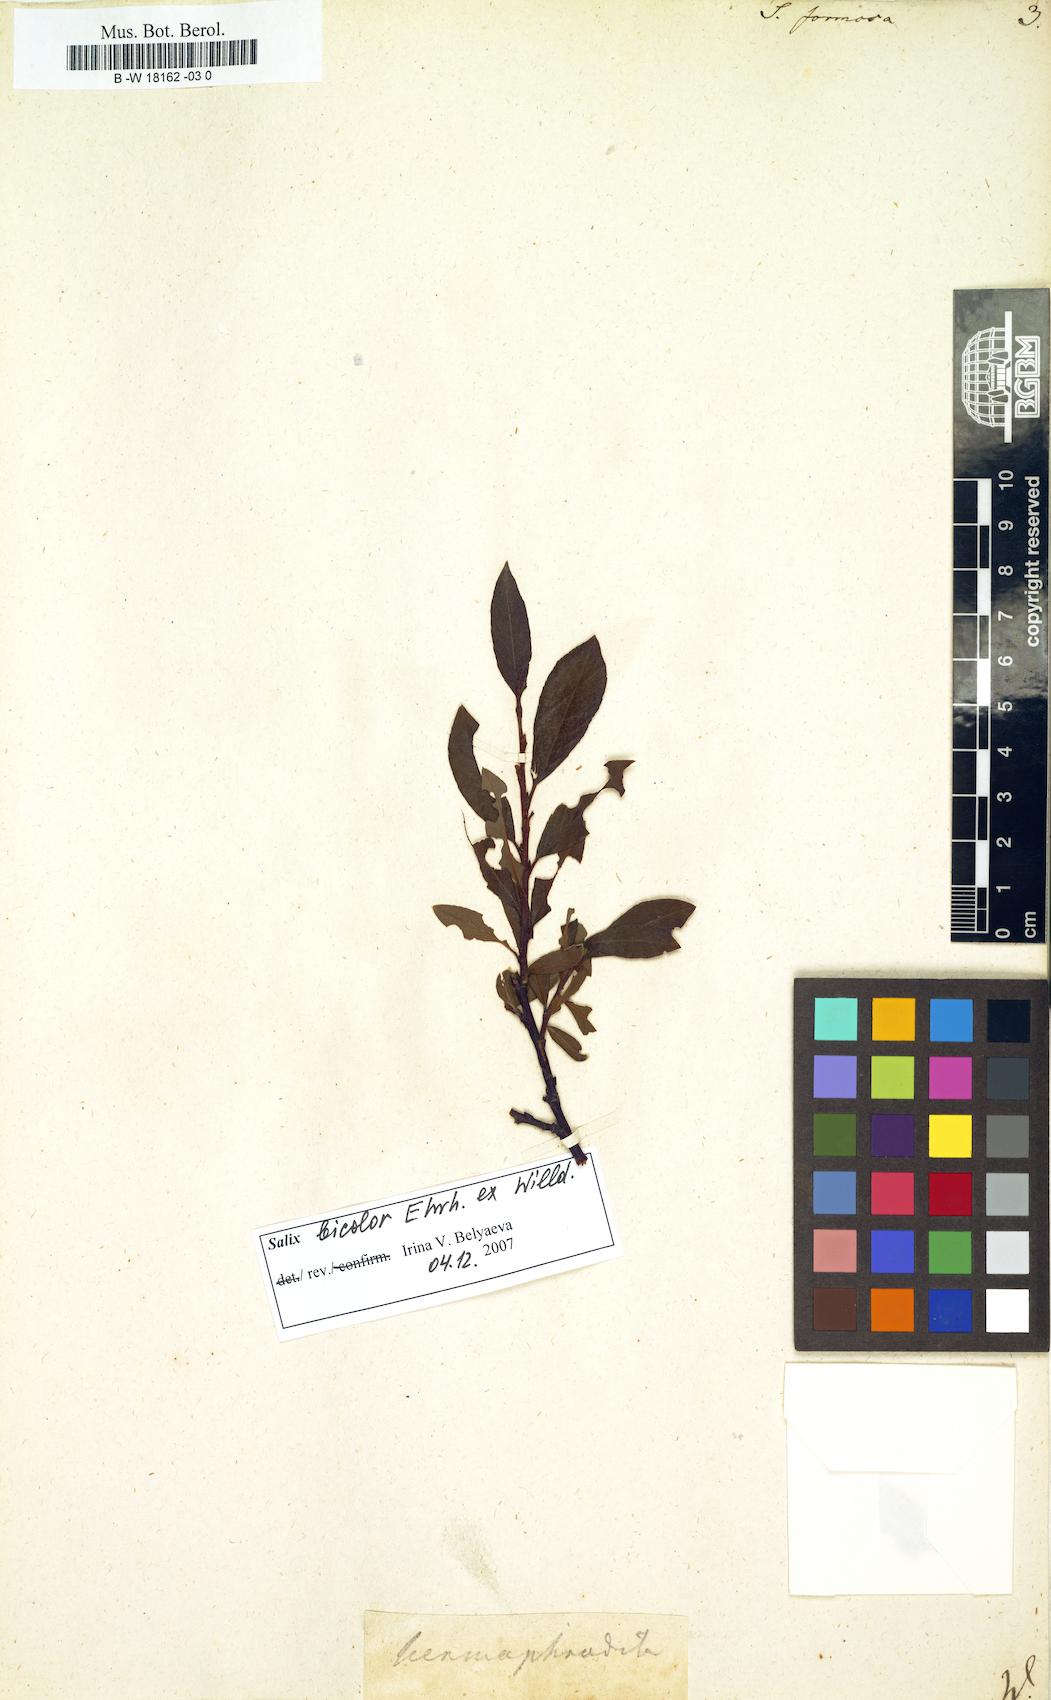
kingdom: Plantae
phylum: Tracheophyta
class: Magnoliopsida
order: Malpighiales
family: Salicaceae
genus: Salix
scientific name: Salix foetida
